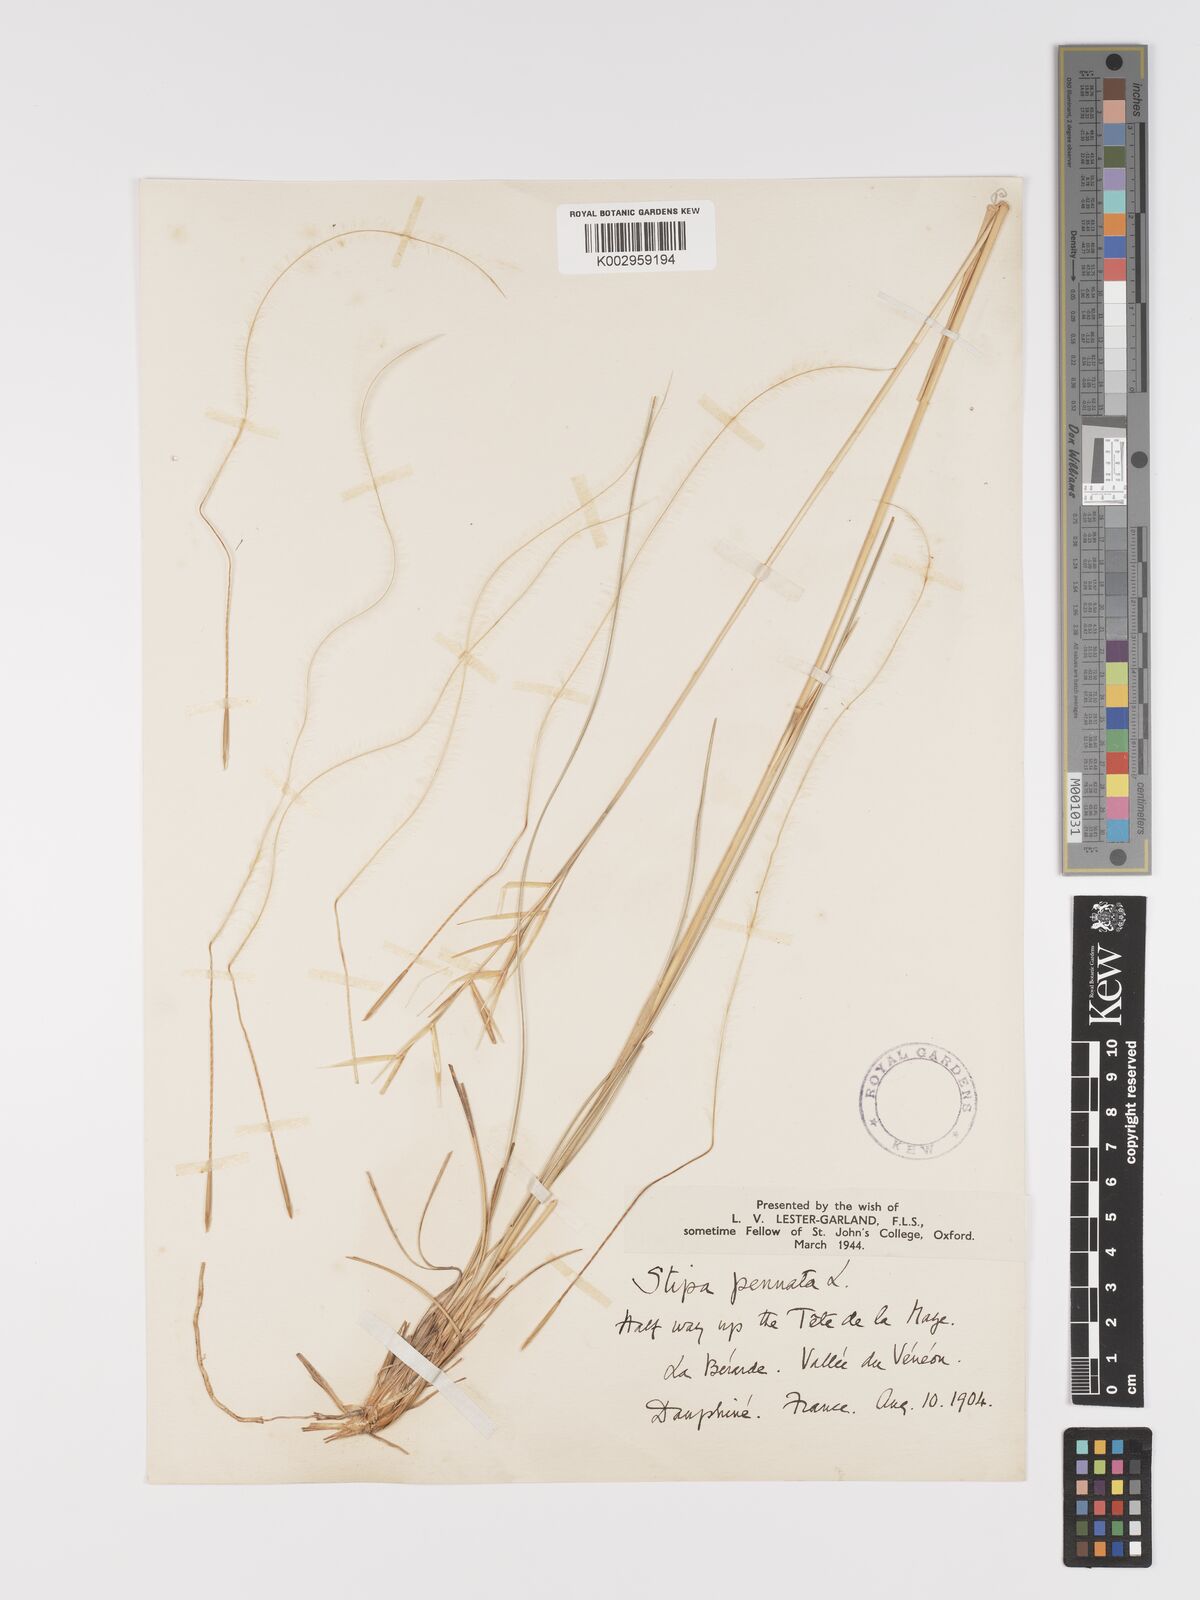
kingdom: Plantae
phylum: Tracheophyta
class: Liliopsida
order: Poales
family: Poaceae
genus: Stipa
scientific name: Stipa pennata
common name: European feather grass
